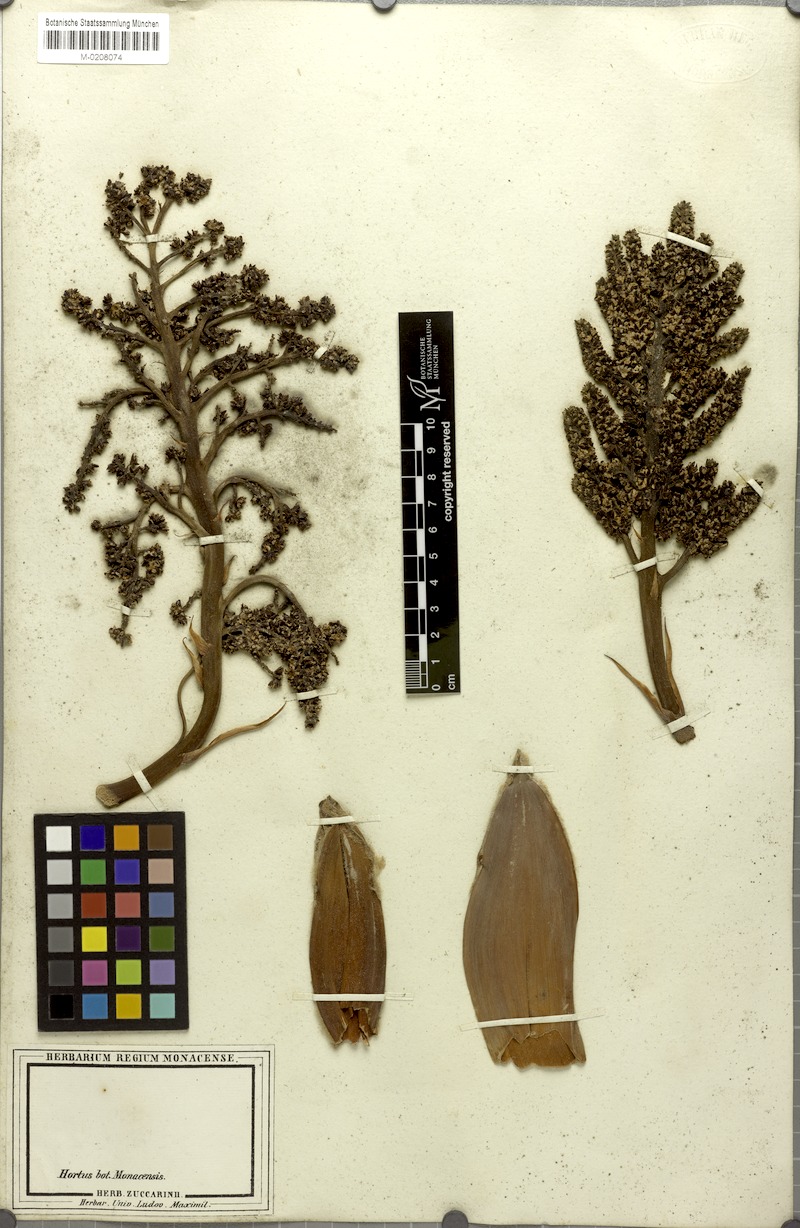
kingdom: Plantae
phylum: Tracheophyta
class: Liliopsida
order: Arecales
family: Arecaceae
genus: Chamaerops
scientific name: Chamaerops humilis
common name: Dwarf fan palm
